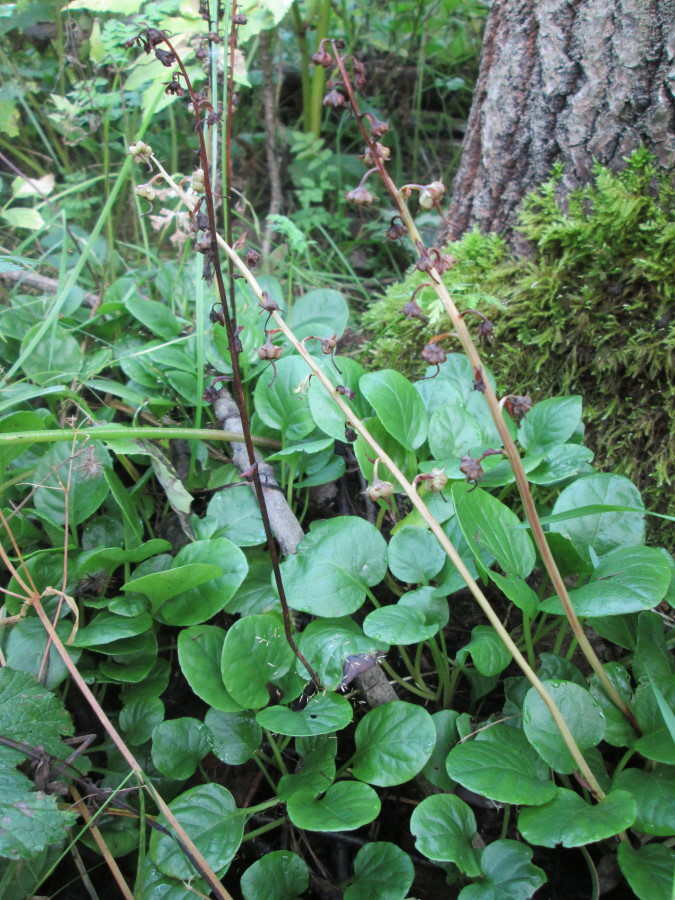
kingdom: Plantae
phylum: Tracheophyta
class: Magnoliopsida
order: Ericales
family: Ericaceae
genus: Pyrola
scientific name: Pyrola rotundifolia
